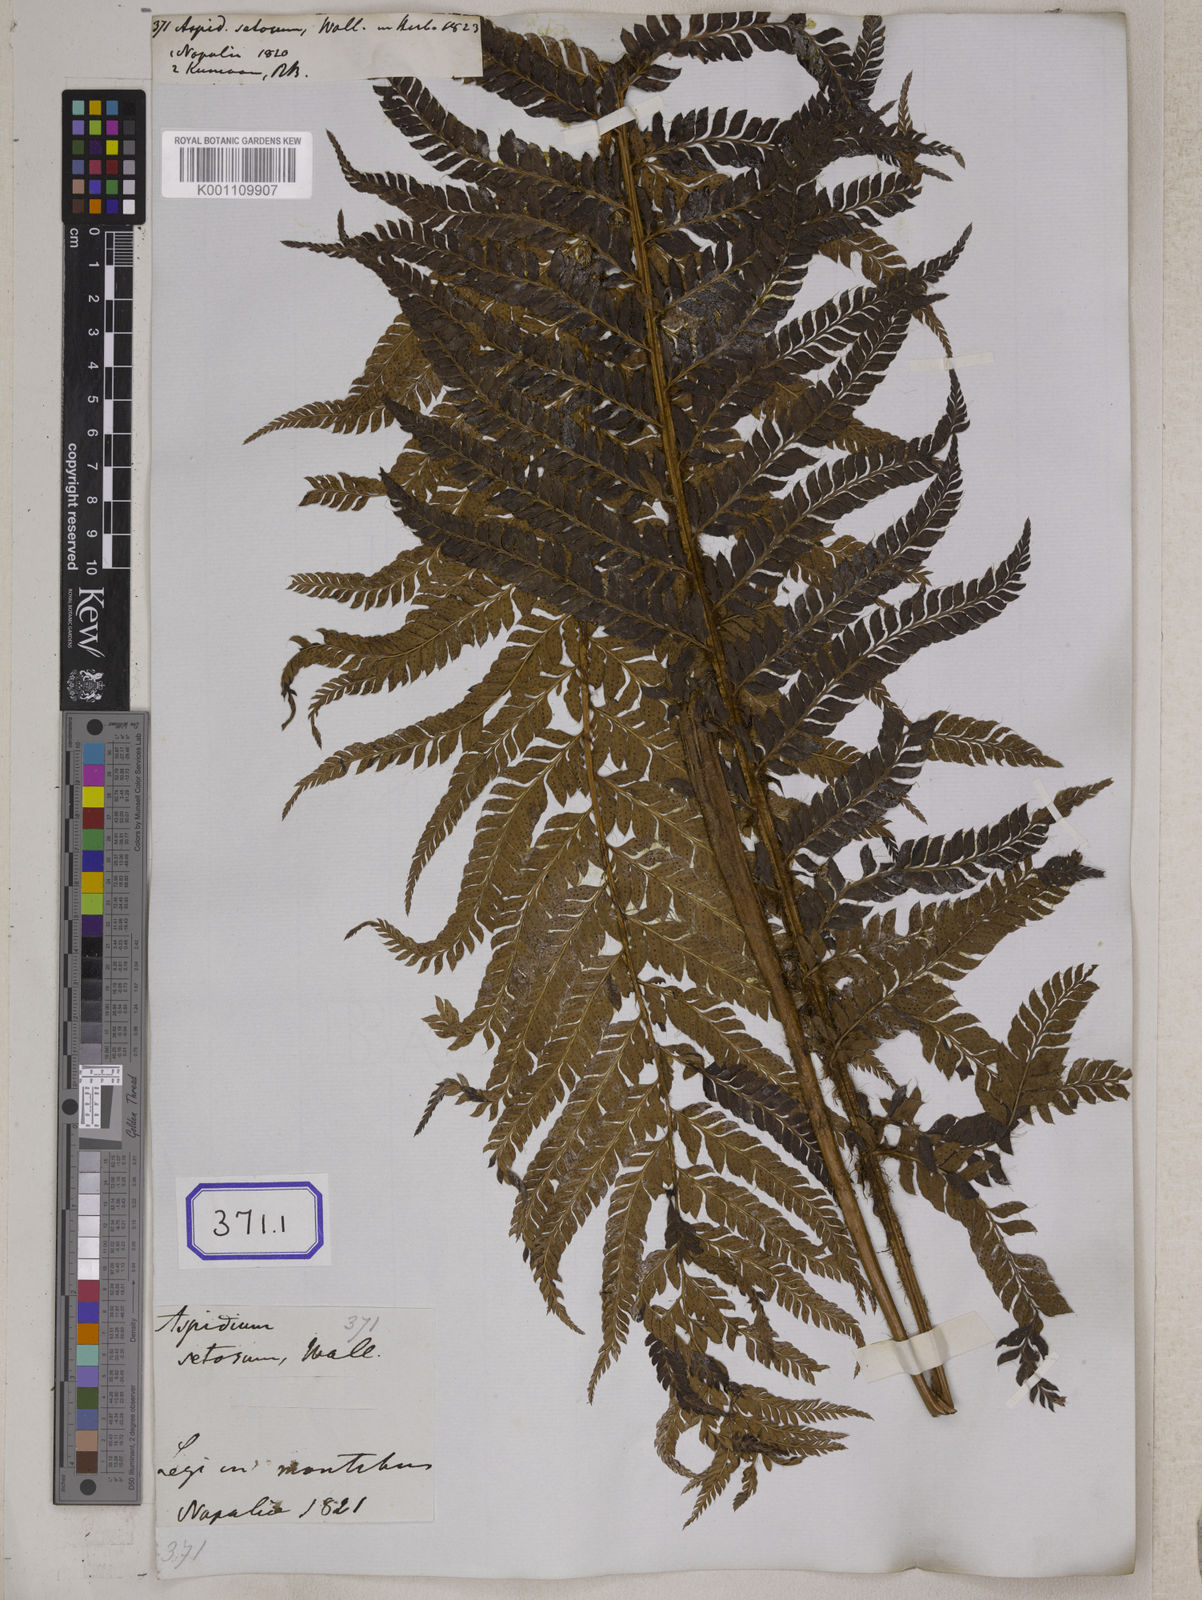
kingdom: Plantae
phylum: Tracheophyta
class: Polypodiopsida
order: Polypodiales
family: Dryopteridaceae
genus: Polystichum
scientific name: Polystichum longipaleatum
